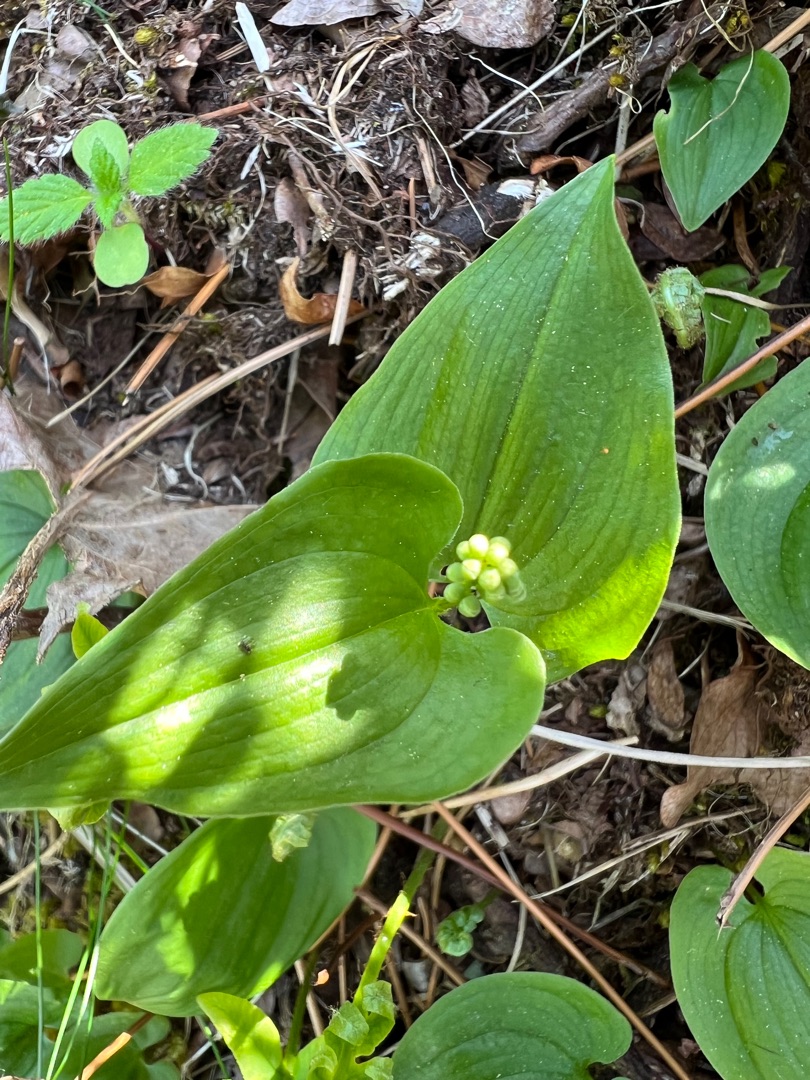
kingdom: Plantae
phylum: Tracheophyta
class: Liliopsida
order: Asparagales
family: Asparagaceae
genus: Maianthemum
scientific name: Maianthemum bifolium
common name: Majblomst
